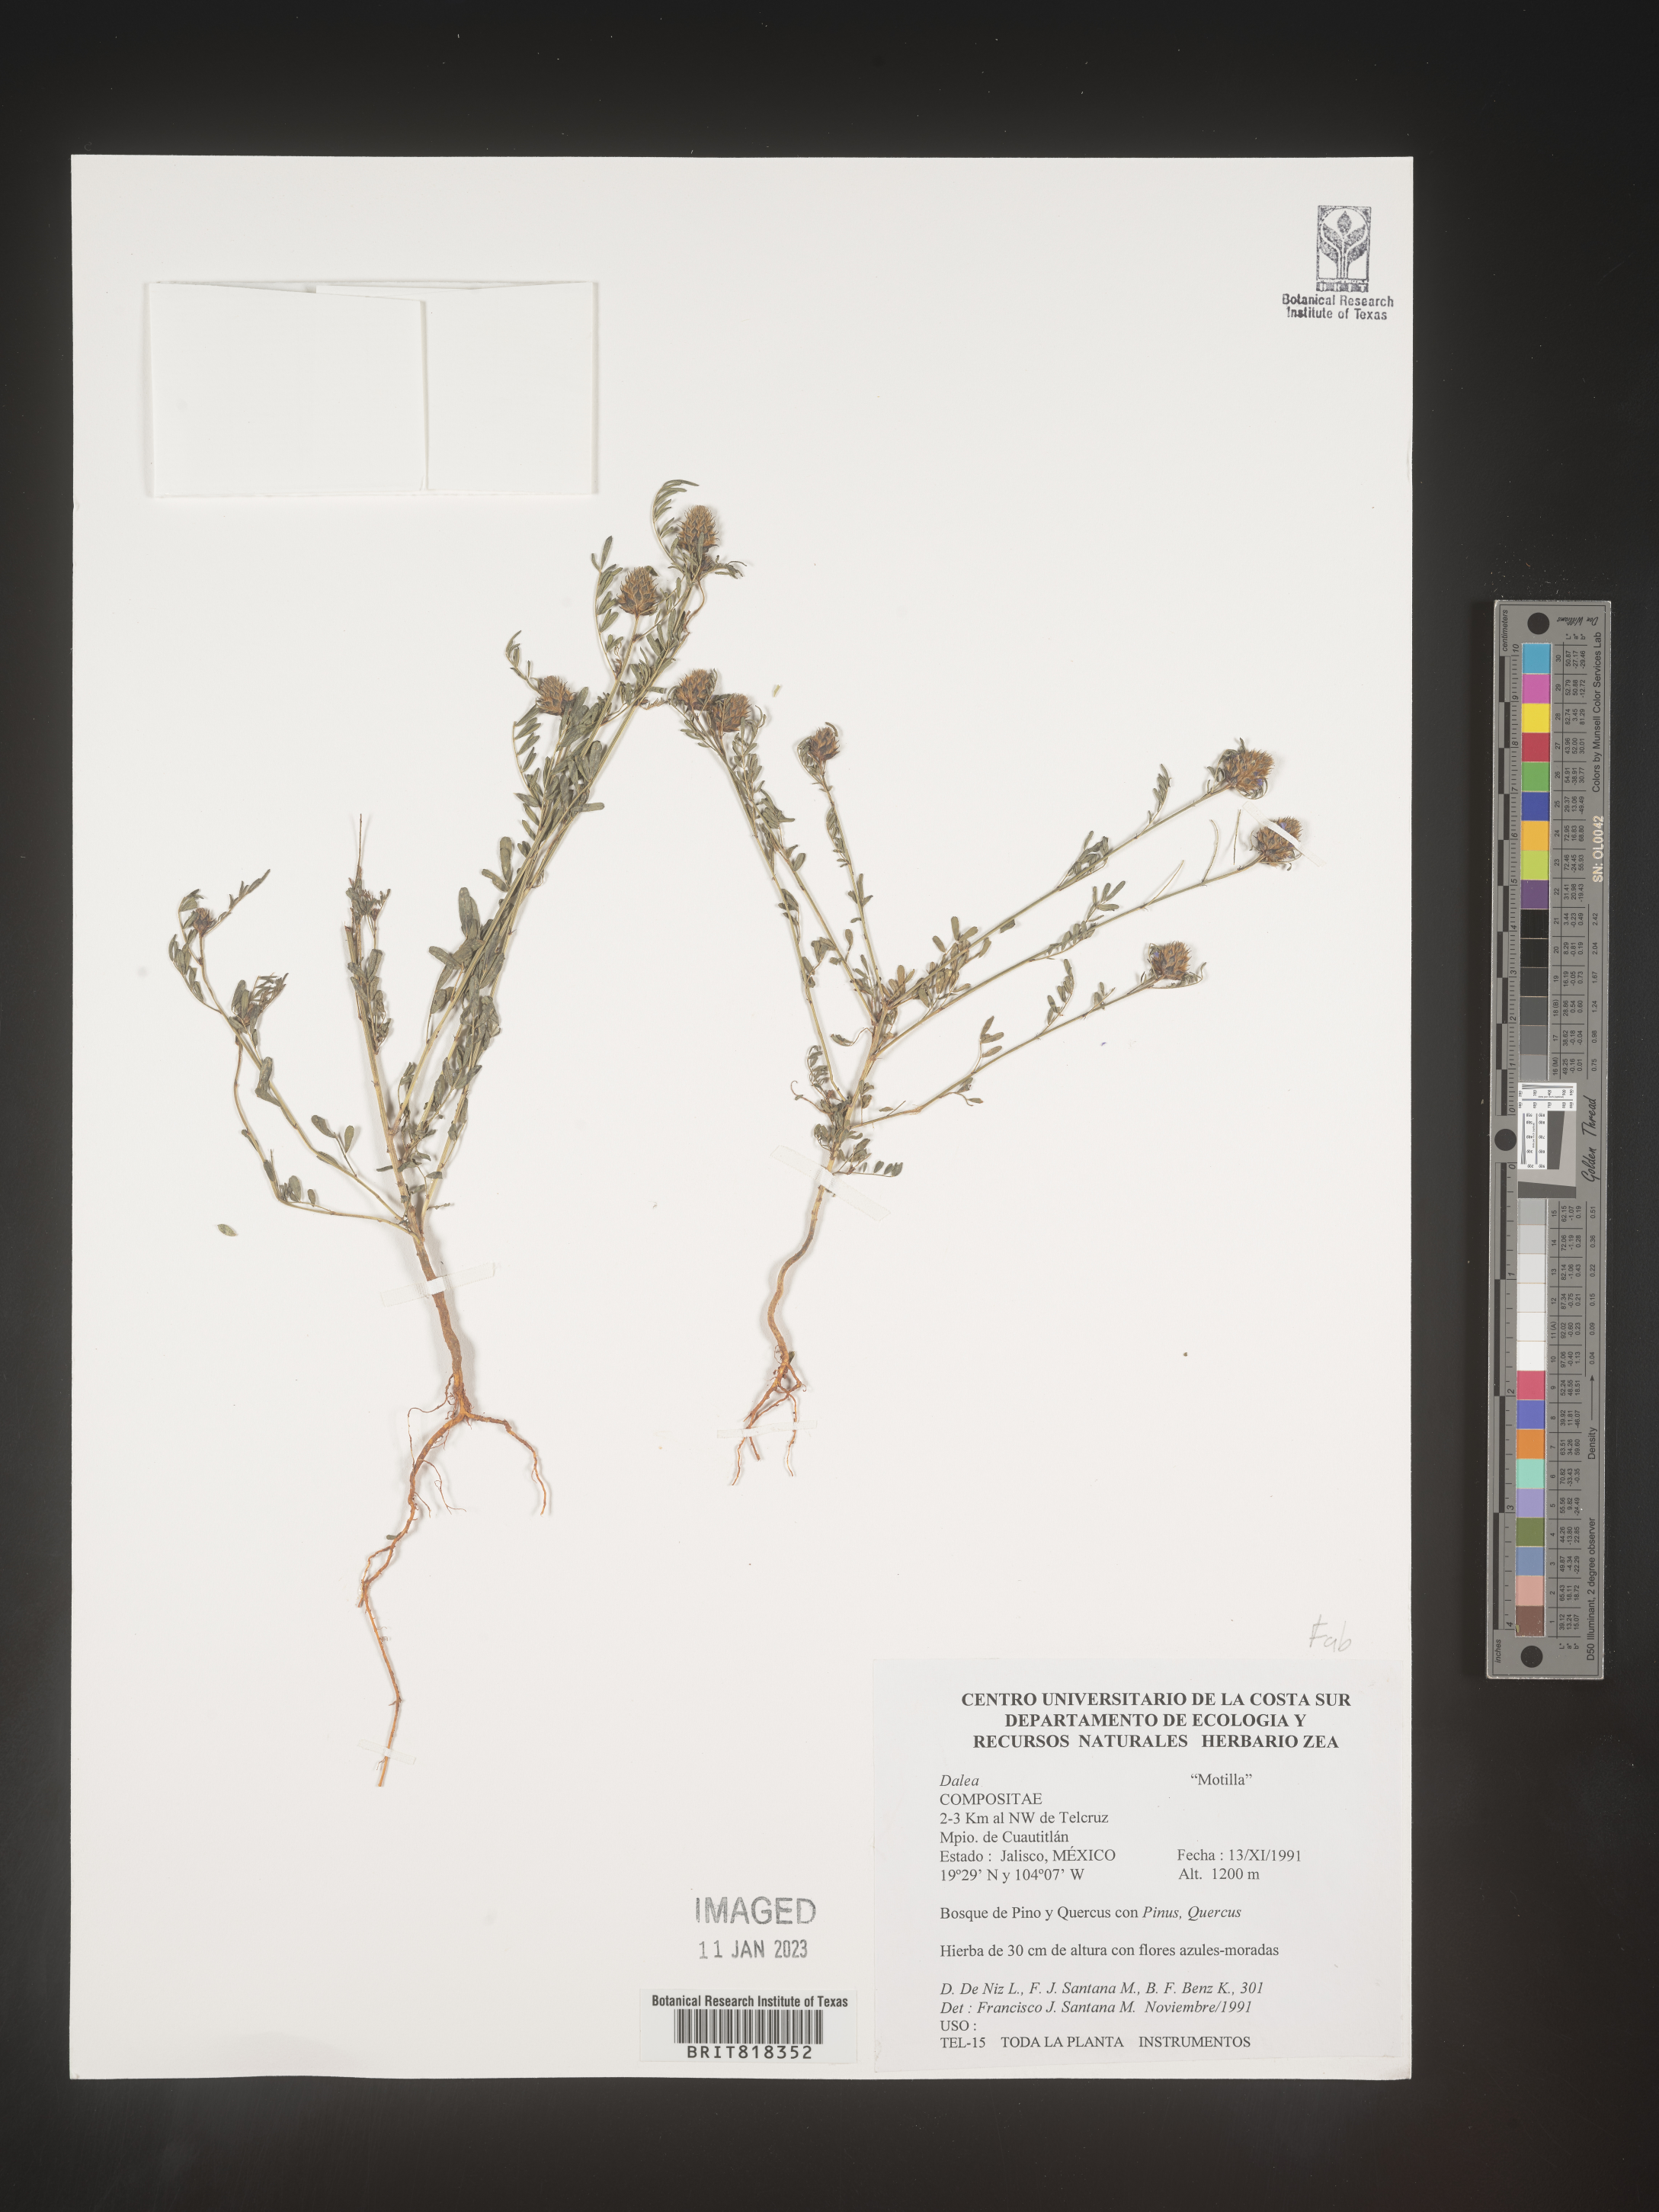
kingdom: Plantae
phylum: Tracheophyta
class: Magnoliopsida
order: Fabales
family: Fabaceae
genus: Dalea
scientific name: Dalea
